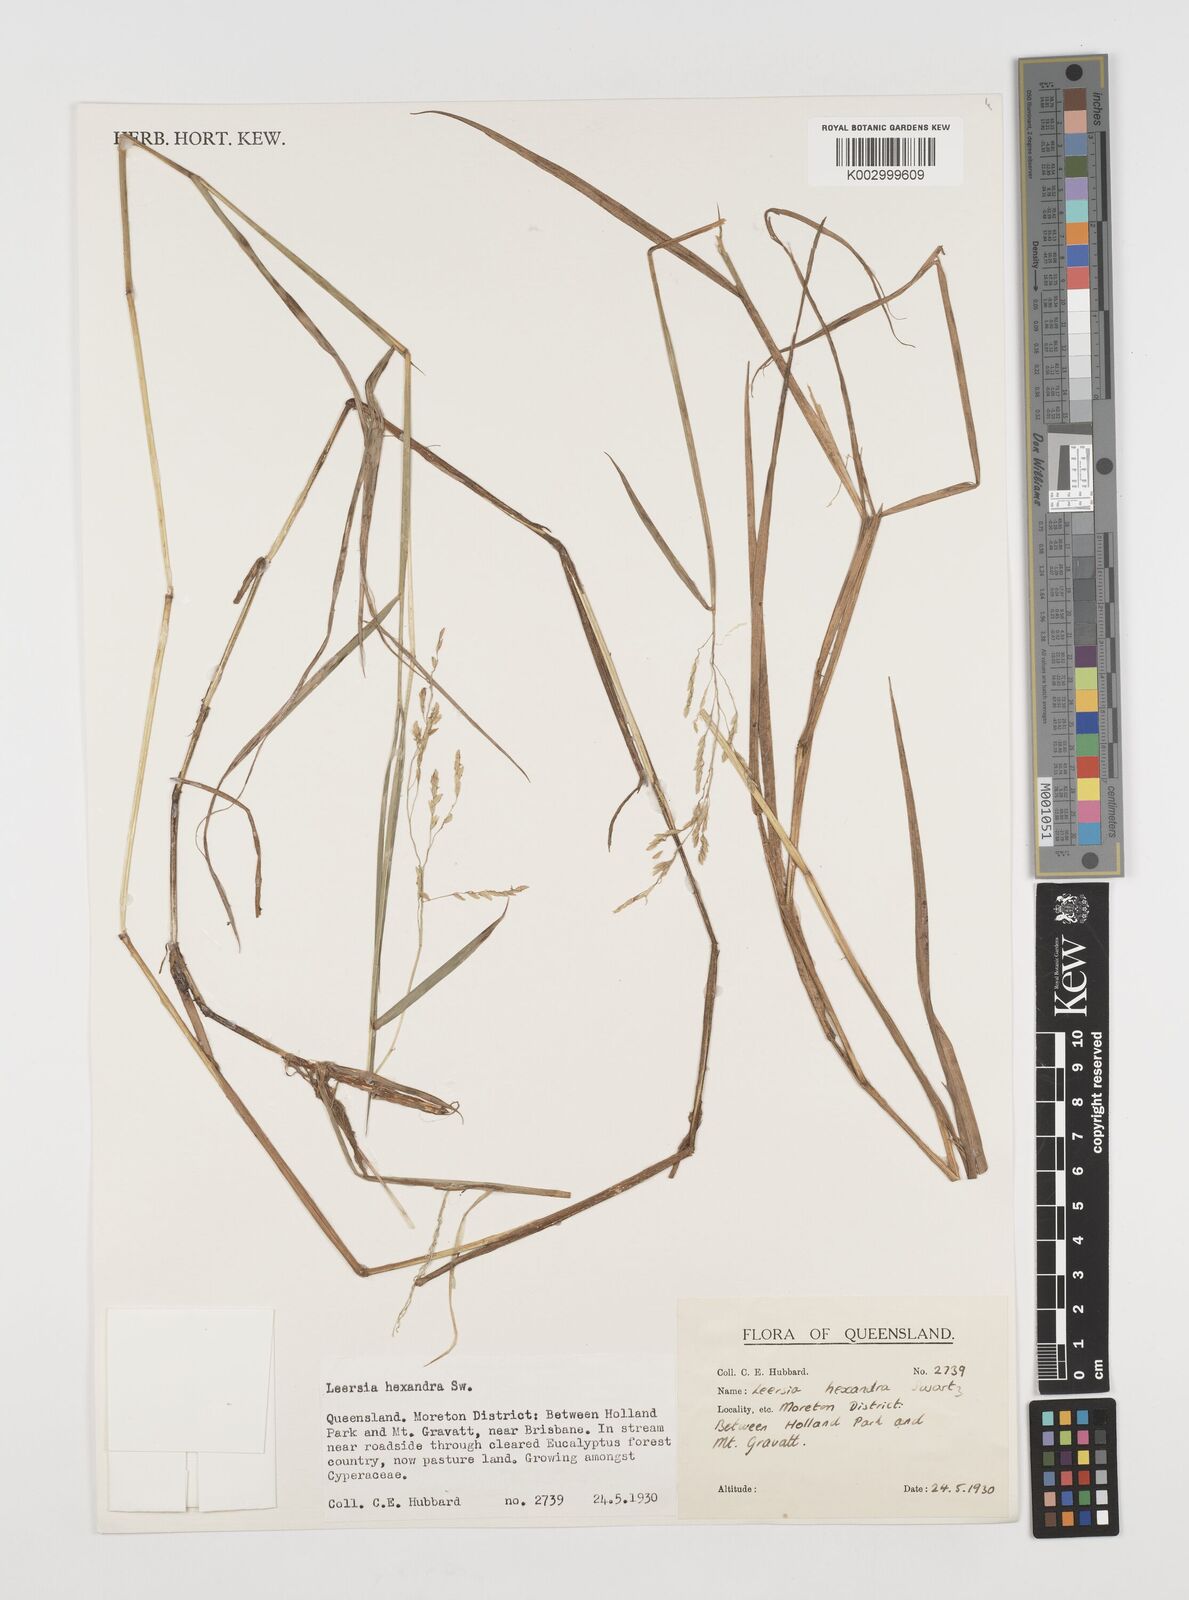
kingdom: Plantae
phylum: Tracheophyta
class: Liliopsida
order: Poales
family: Poaceae
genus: Leersia
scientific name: Leersia hexandra
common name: Southern cut grass
